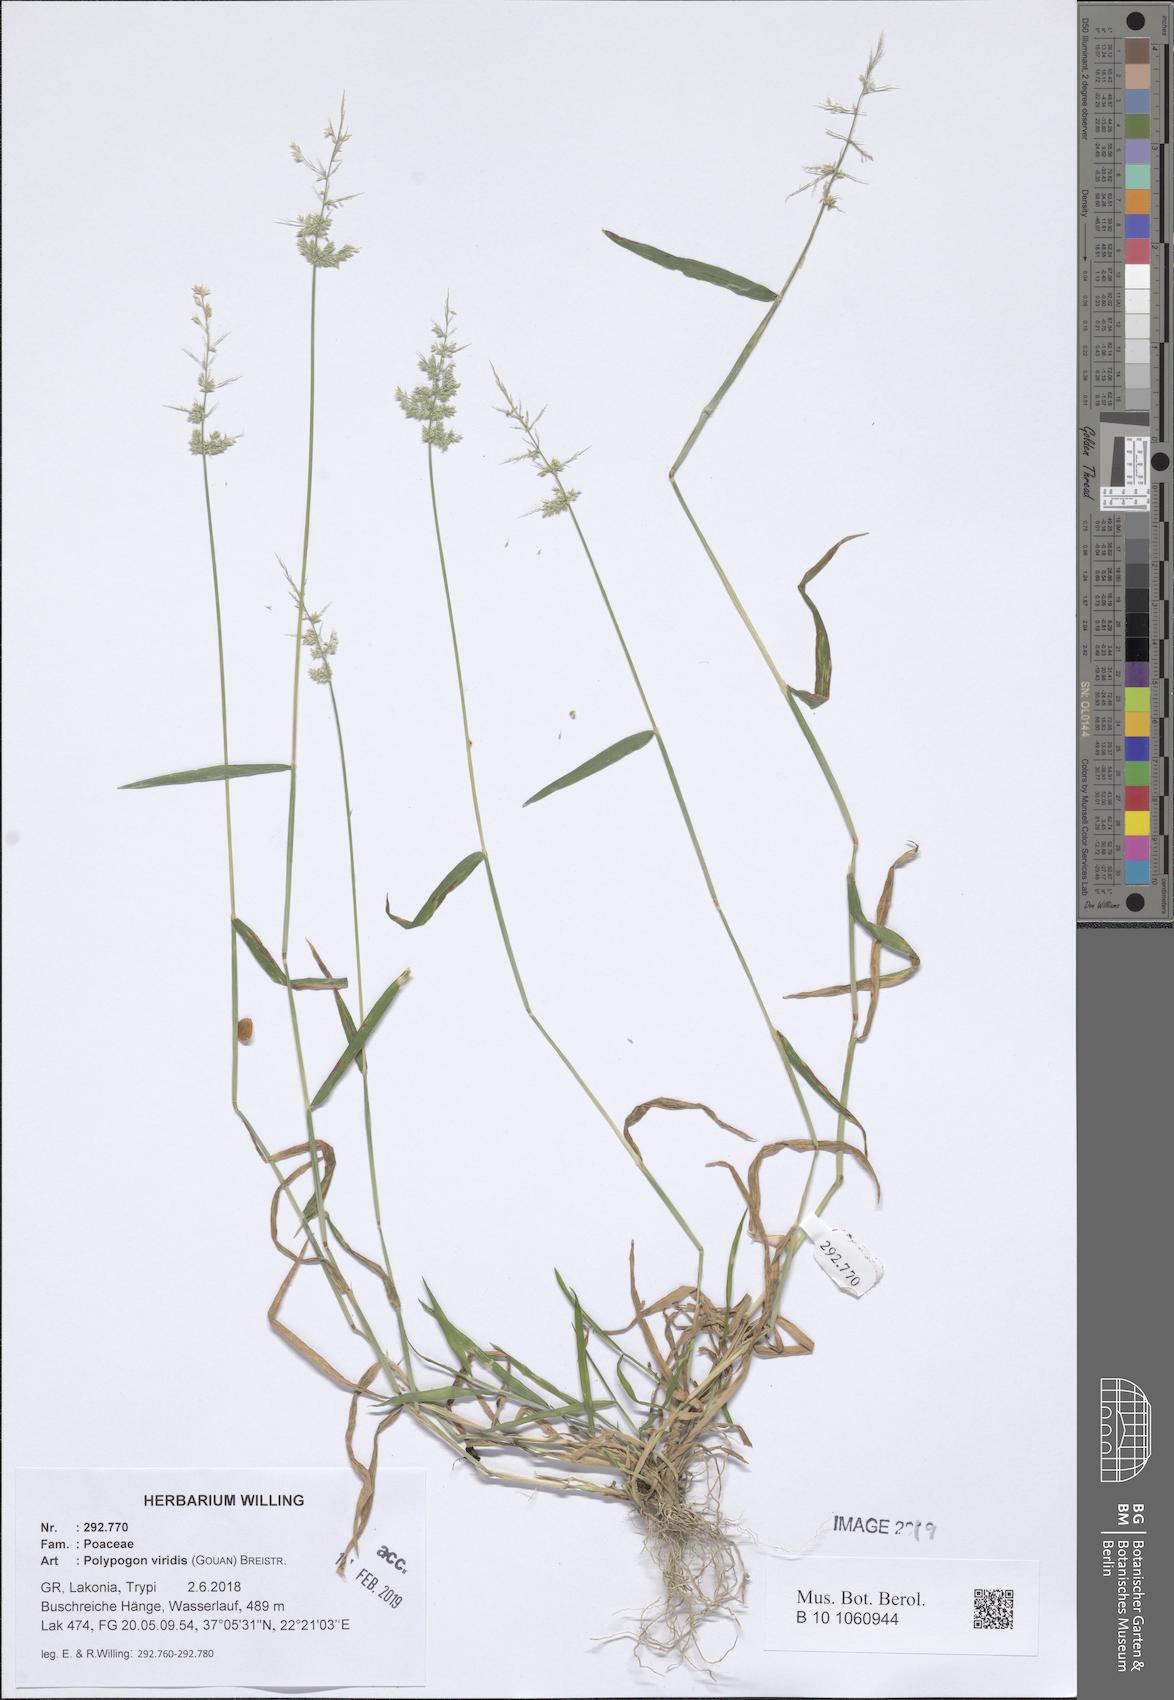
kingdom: Plantae
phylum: Tracheophyta
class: Liliopsida
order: Poales
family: Poaceae
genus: Polypogon
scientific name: Polypogon viridis
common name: Water bent
